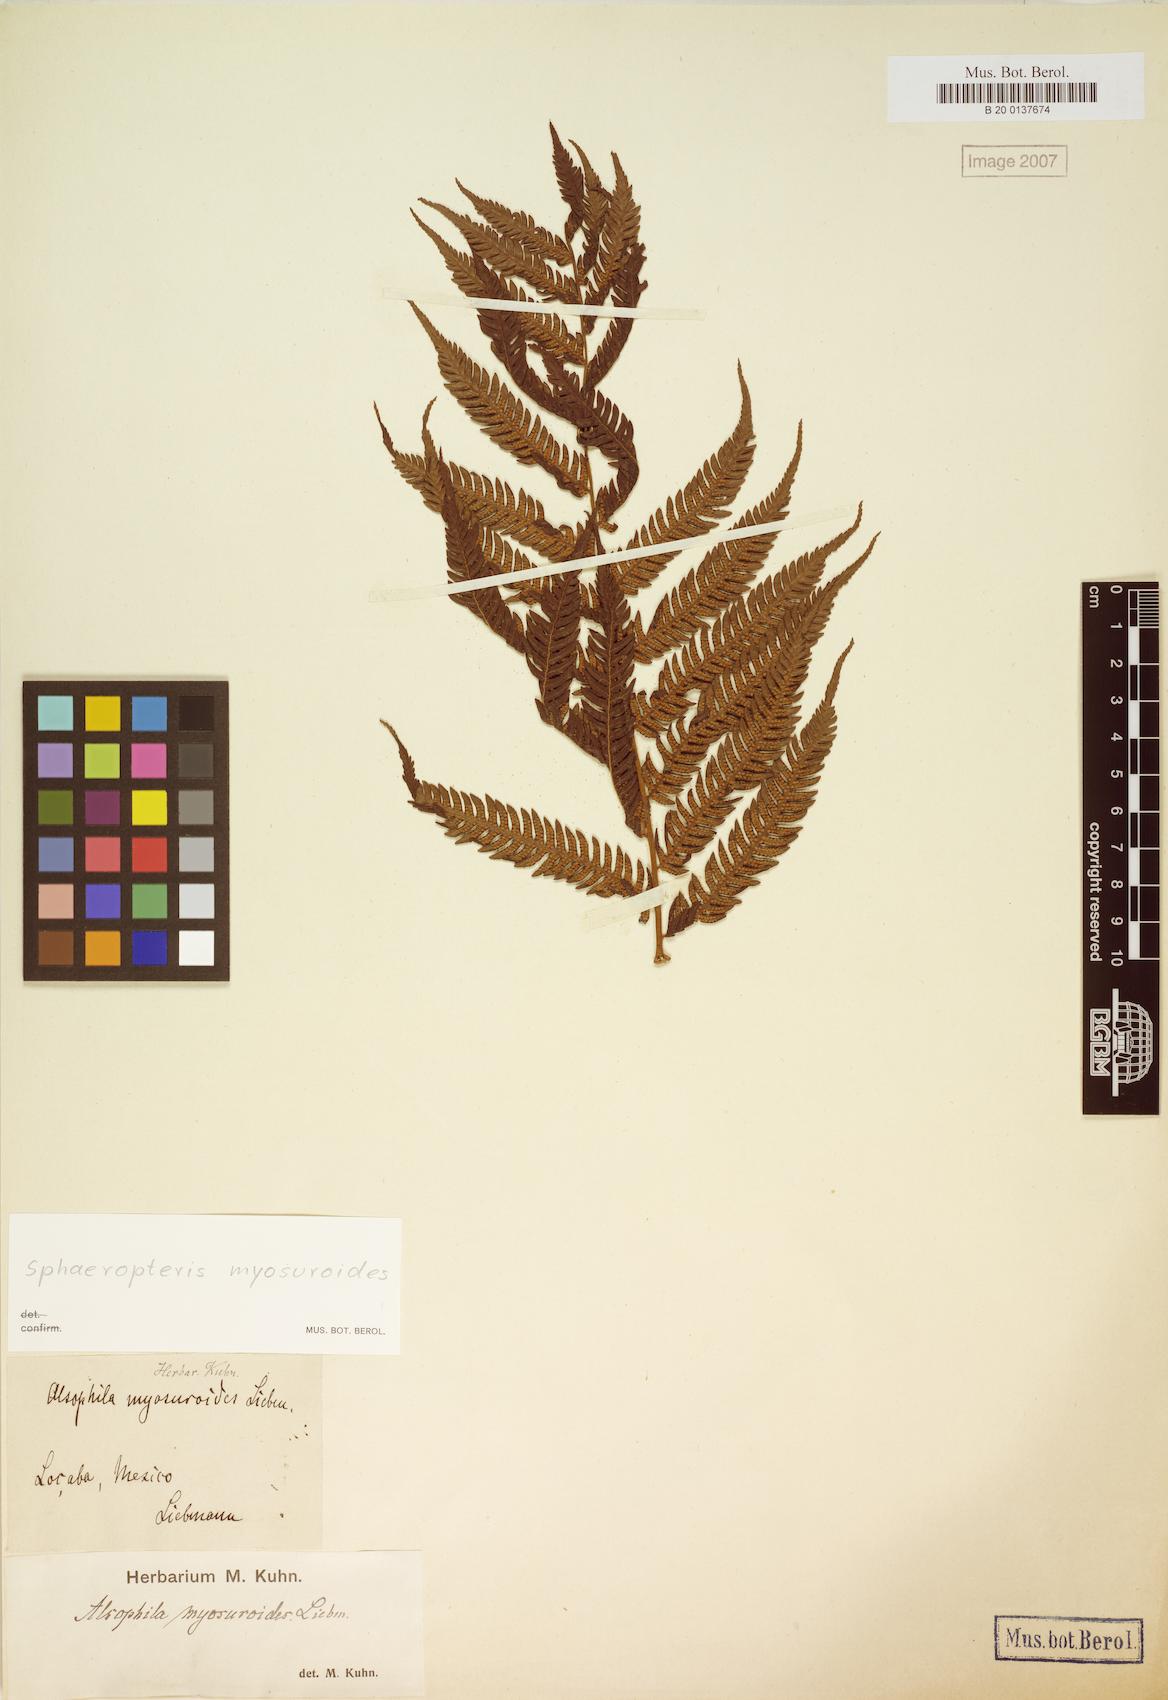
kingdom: Plantae
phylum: Tracheophyta
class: Polypodiopsida
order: Cyatheales
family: Cyatheaceae
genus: Sphaeropteris
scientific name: Sphaeropteris myosuroides
